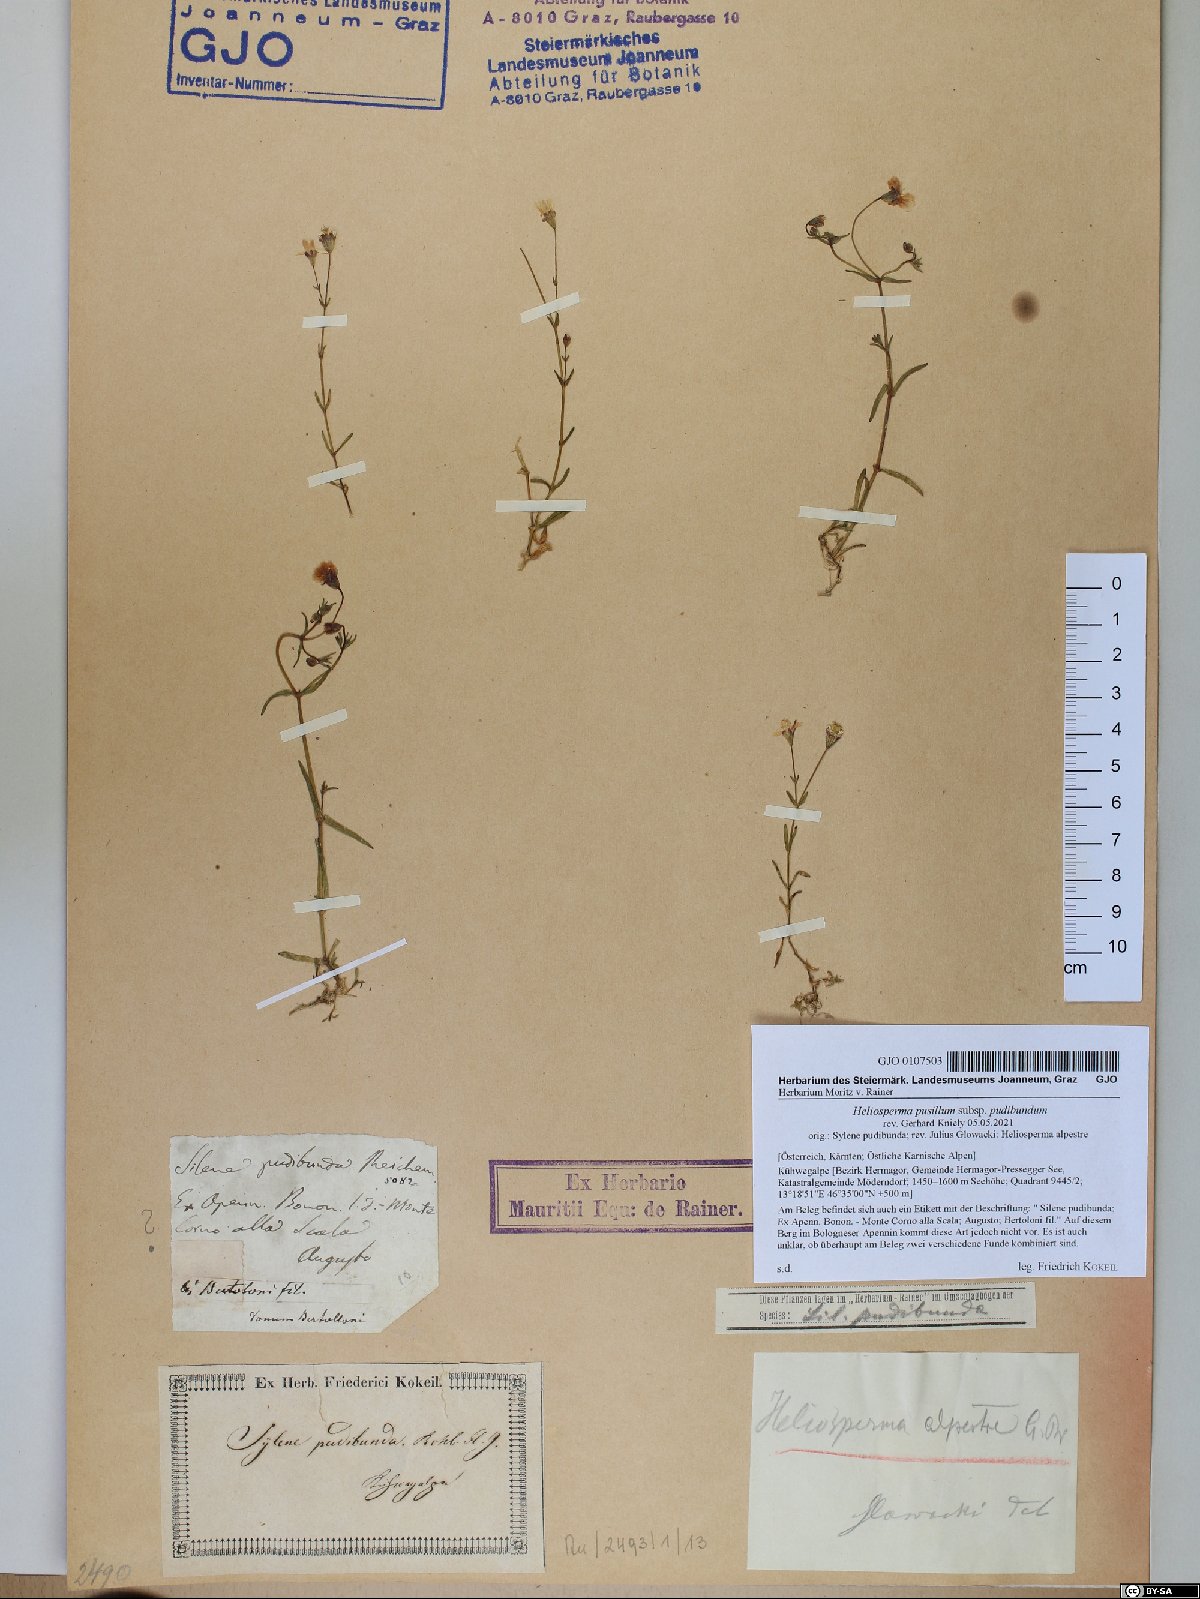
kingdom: Plantae
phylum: Tracheophyta
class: Magnoliopsida
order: Caryophyllales
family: Caryophyllaceae
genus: Heliosperma
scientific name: Heliosperma pudibundum
